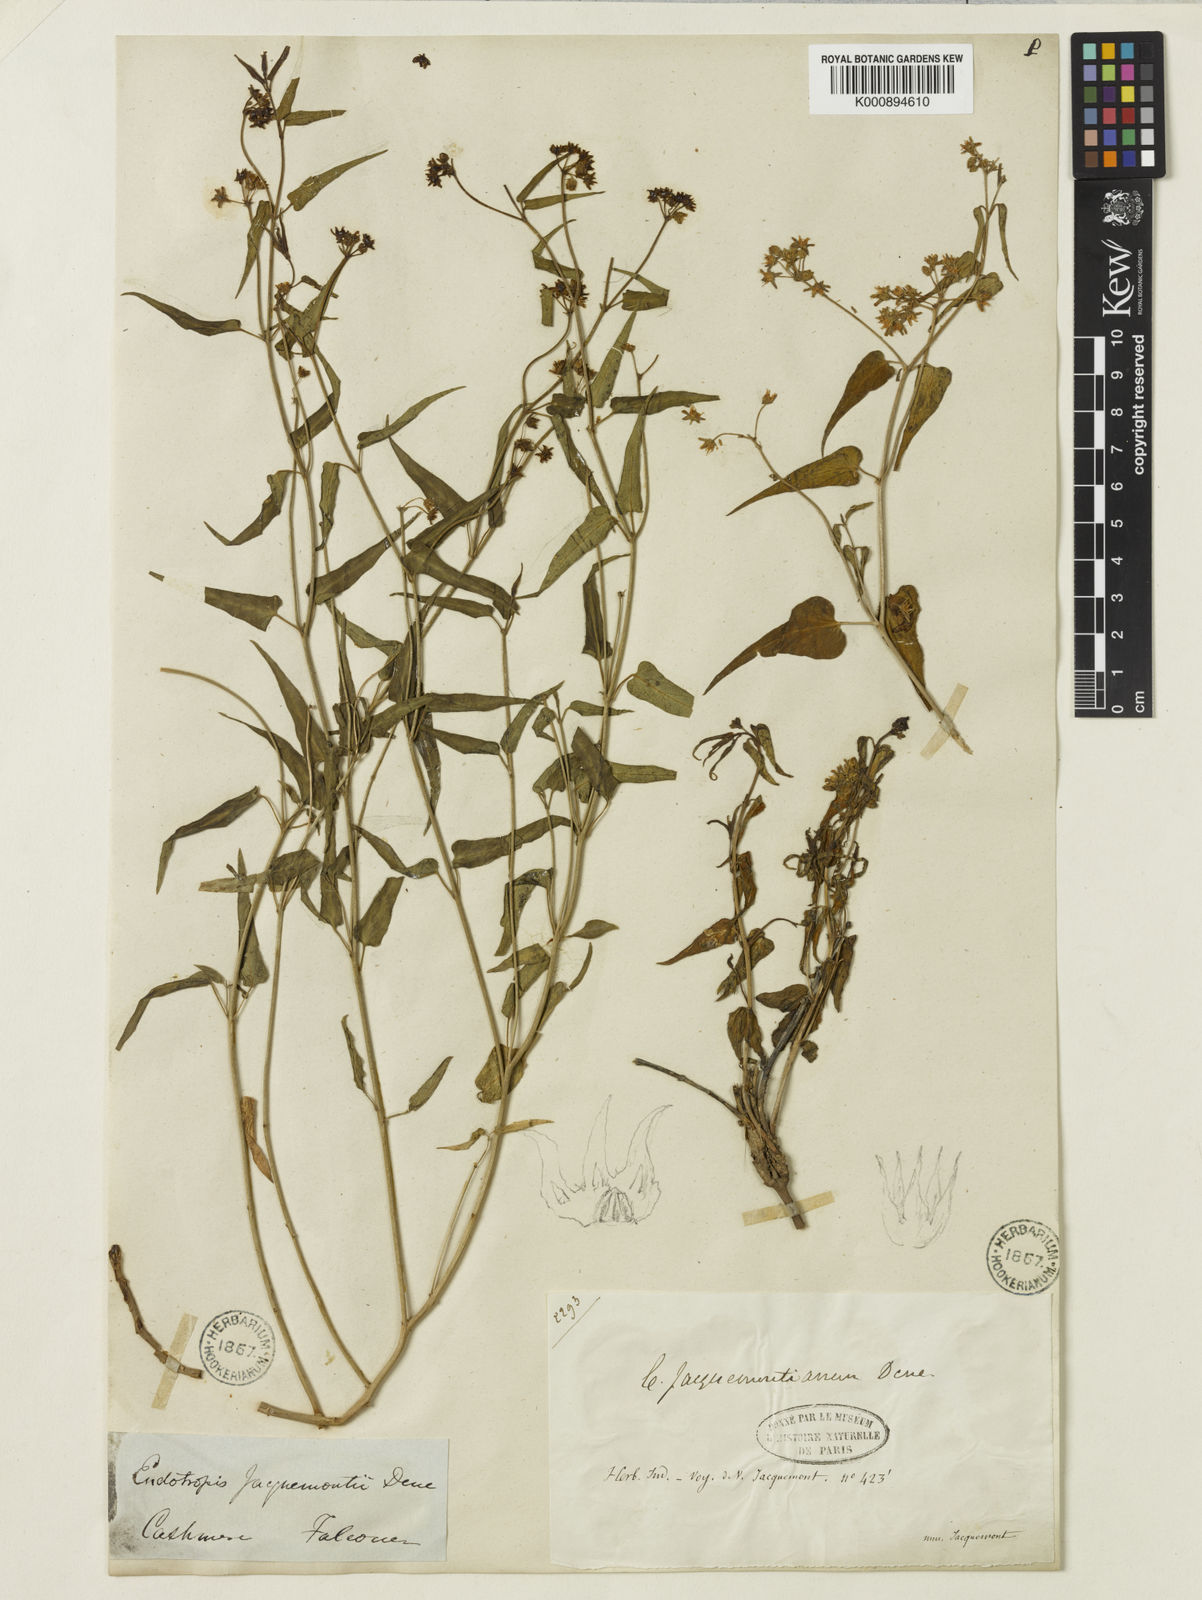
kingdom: Plantae
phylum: Tracheophyta
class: Magnoliopsida
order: Gentianales
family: Apocynaceae
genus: Vincetoxicum
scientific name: Vincetoxicum jacquemontianum
